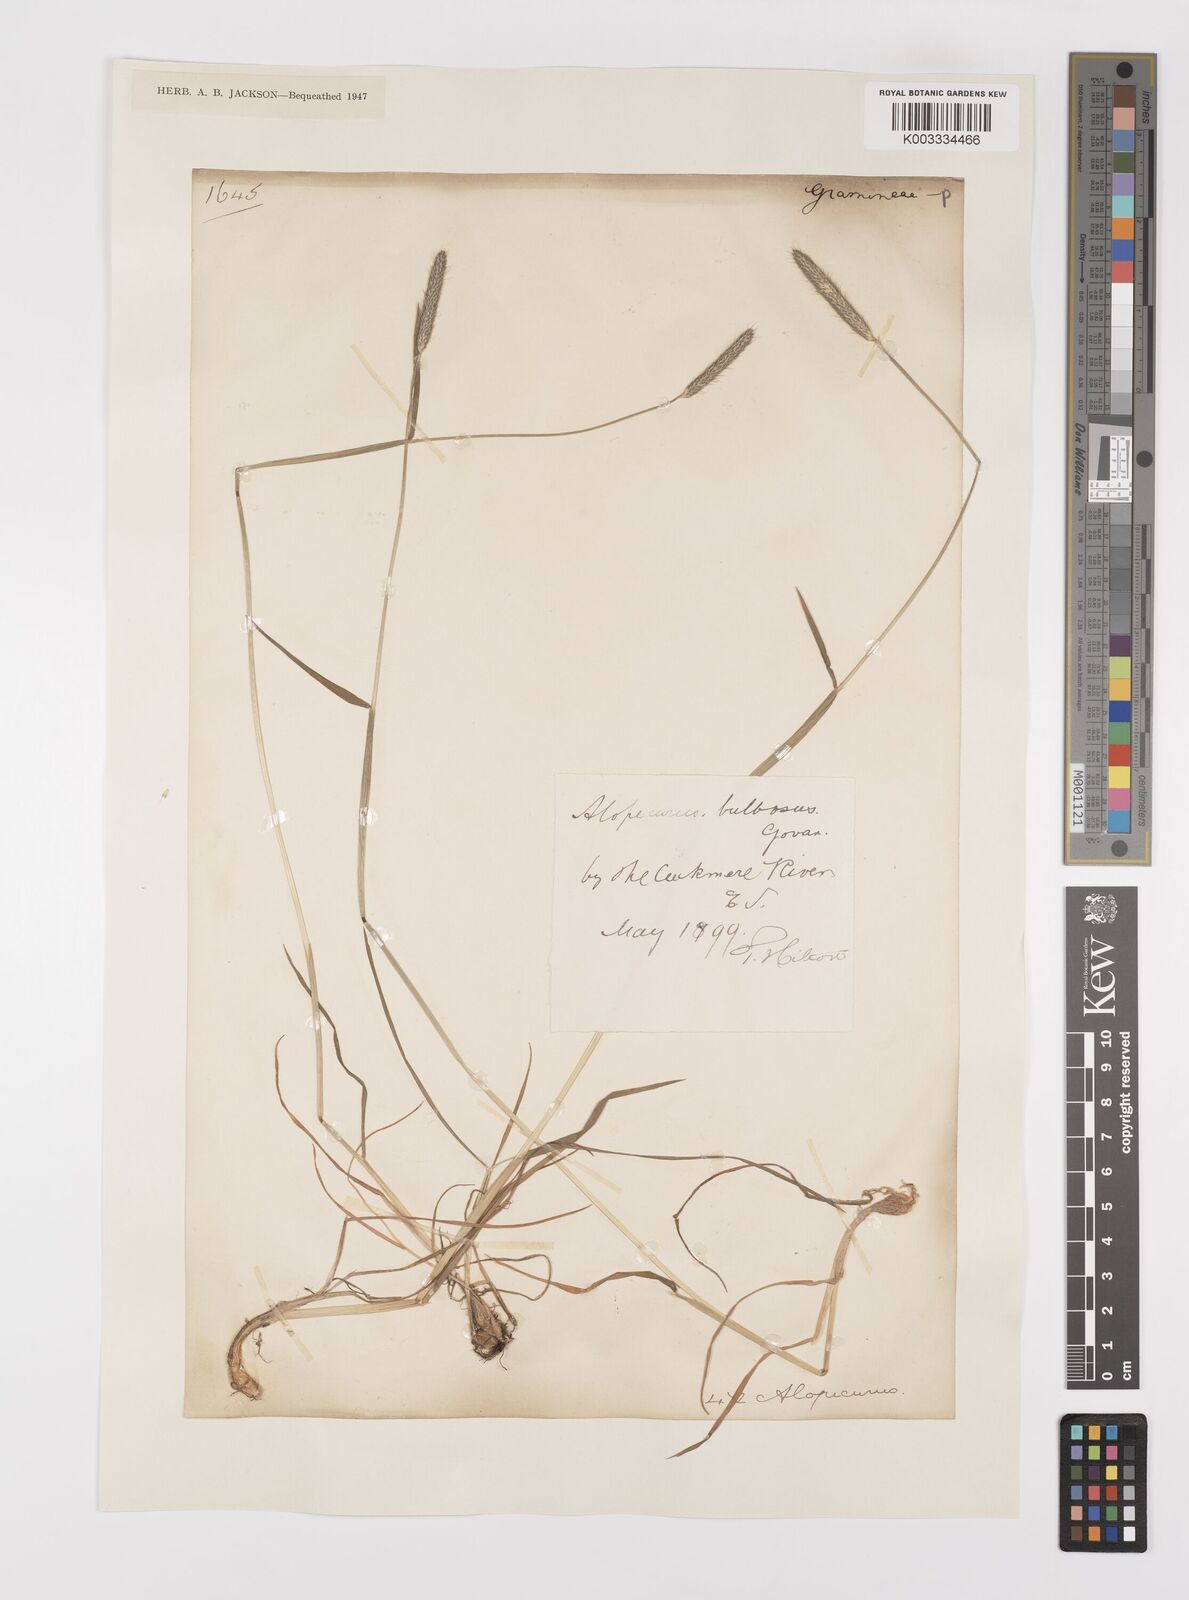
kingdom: Plantae
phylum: Tracheophyta
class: Liliopsida
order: Poales
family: Poaceae
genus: Alopecurus
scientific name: Alopecurus bulbosus
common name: Bulbous foxtail
